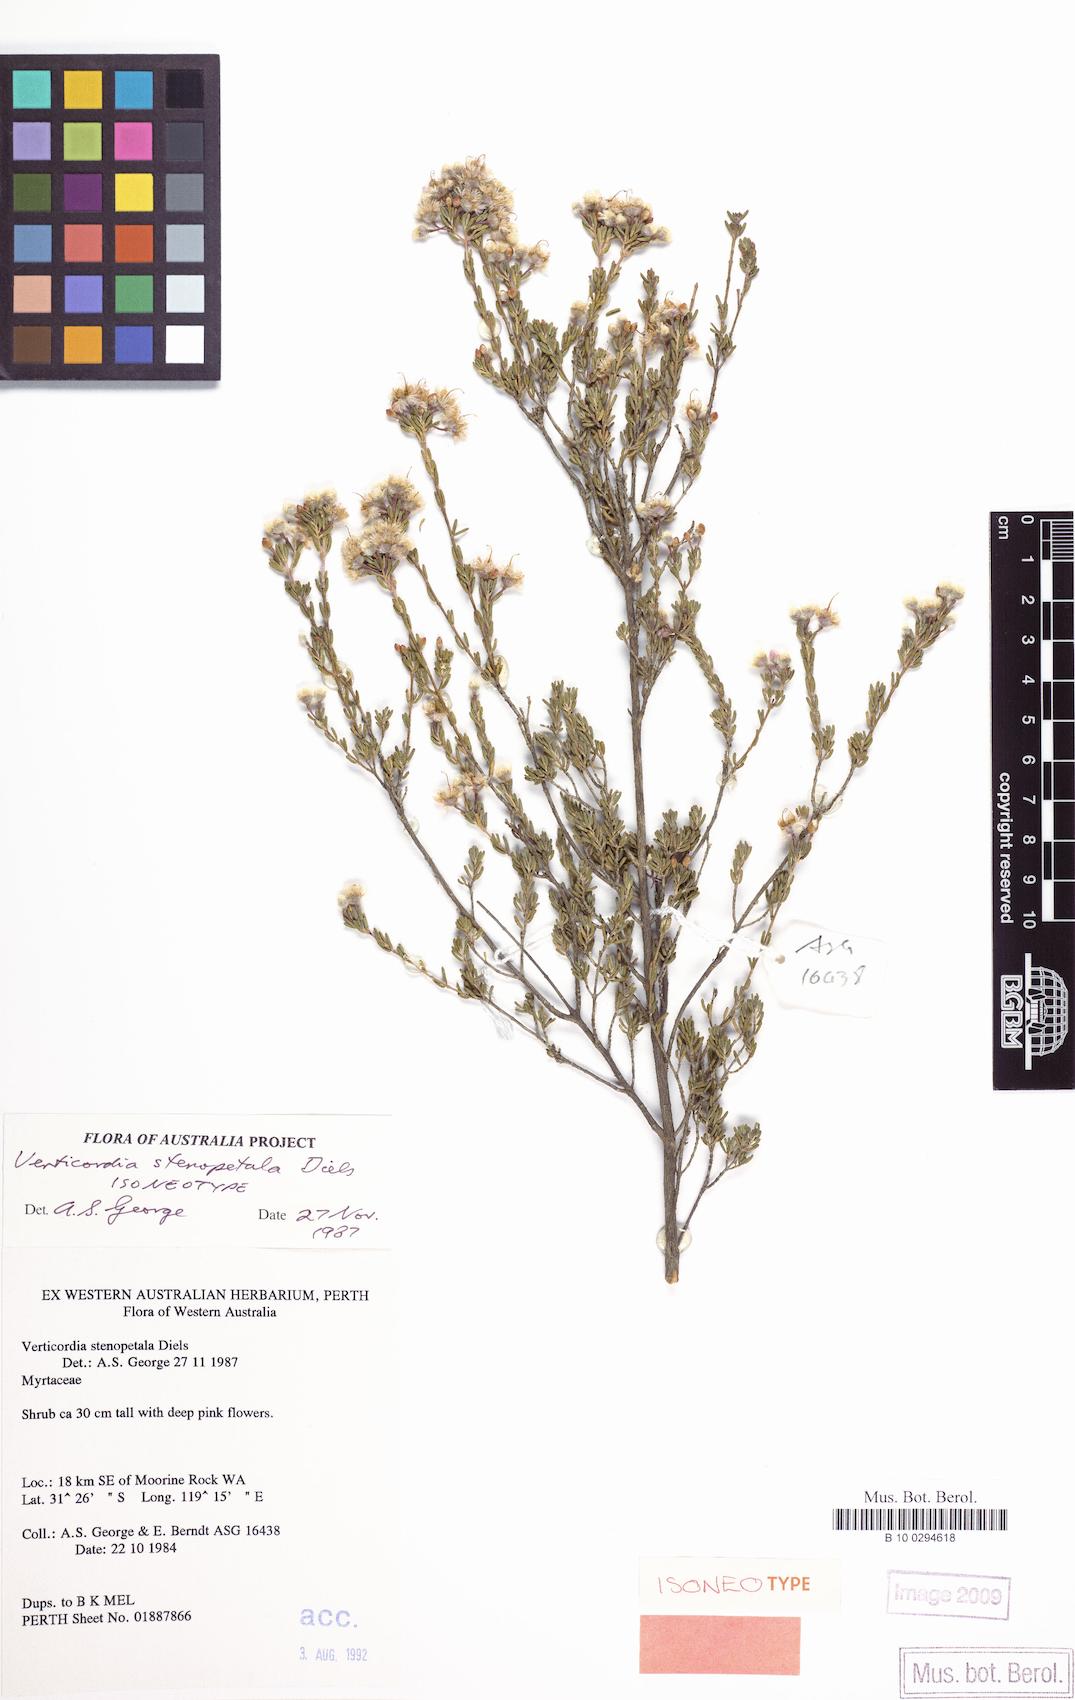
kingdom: Plantae
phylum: Tracheophyta
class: Magnoliopsida
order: Myrtales
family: Myrtaceae
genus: Verticordia
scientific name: Verticordia stenopetala
